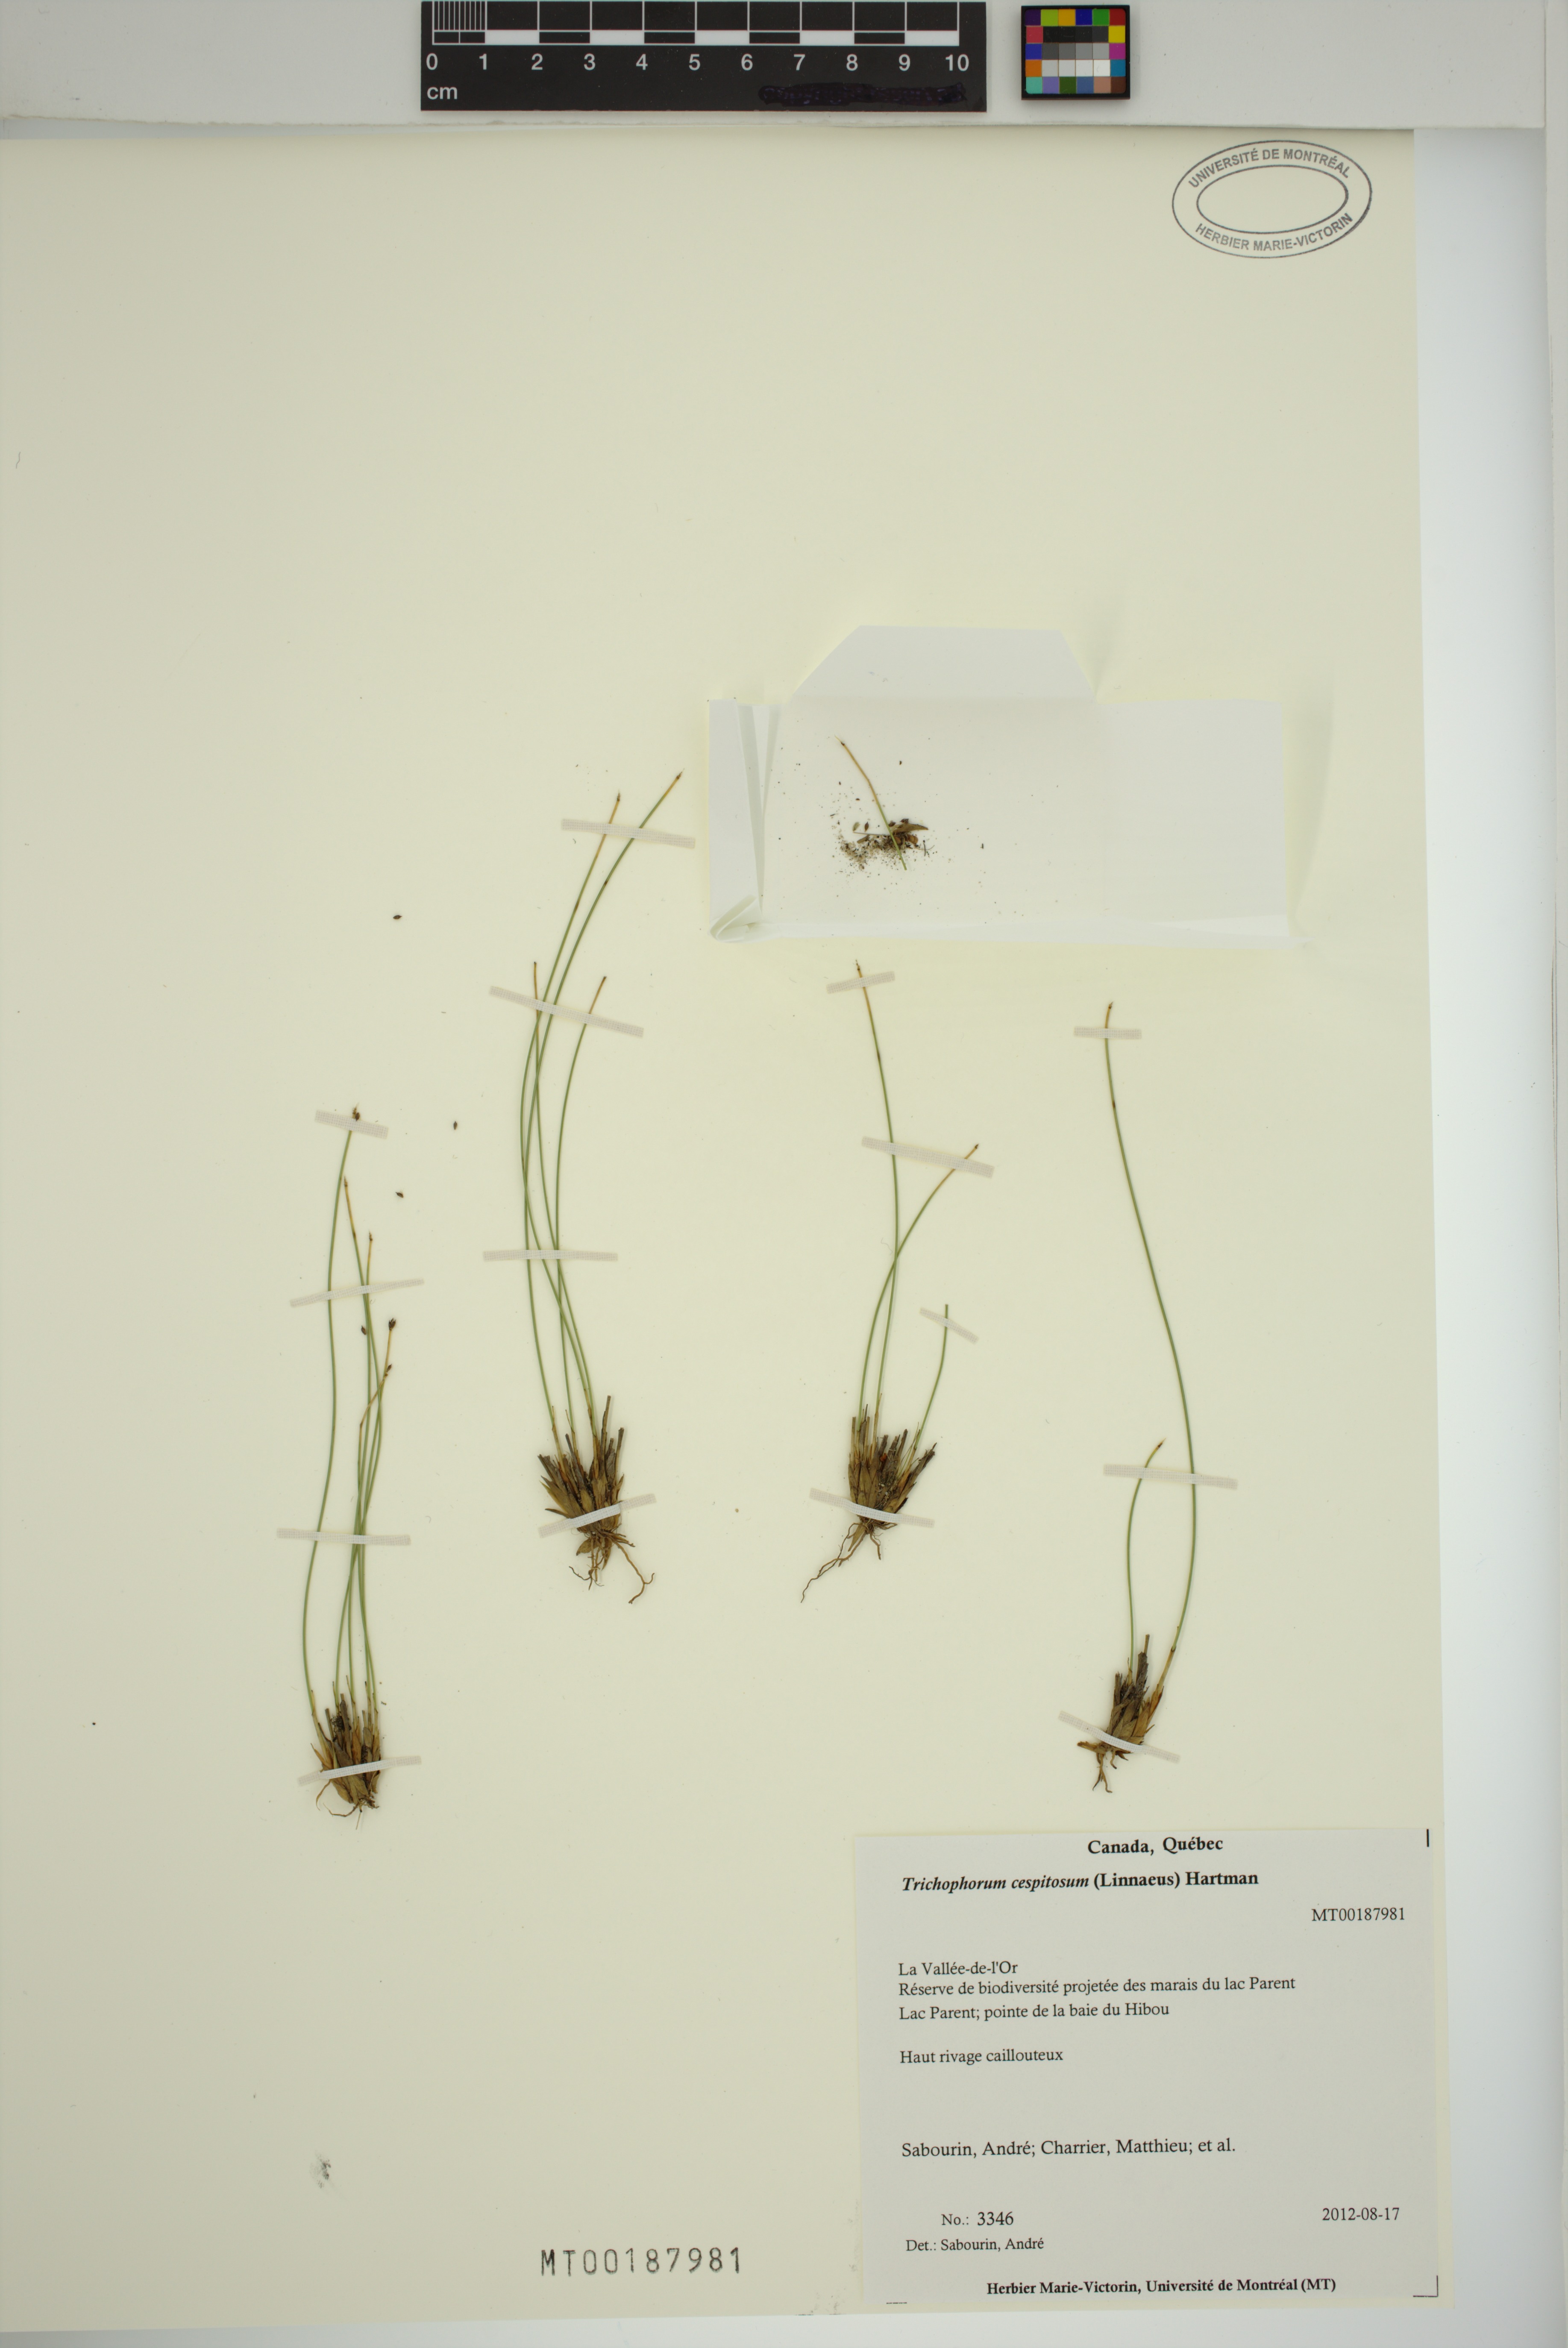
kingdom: Plantae
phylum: Tracheophyta
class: Liliopsida
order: Poales
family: Cyperaceae
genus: Trichophorum
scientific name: Trichophorum cespitosum
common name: Cespitose bulrush
